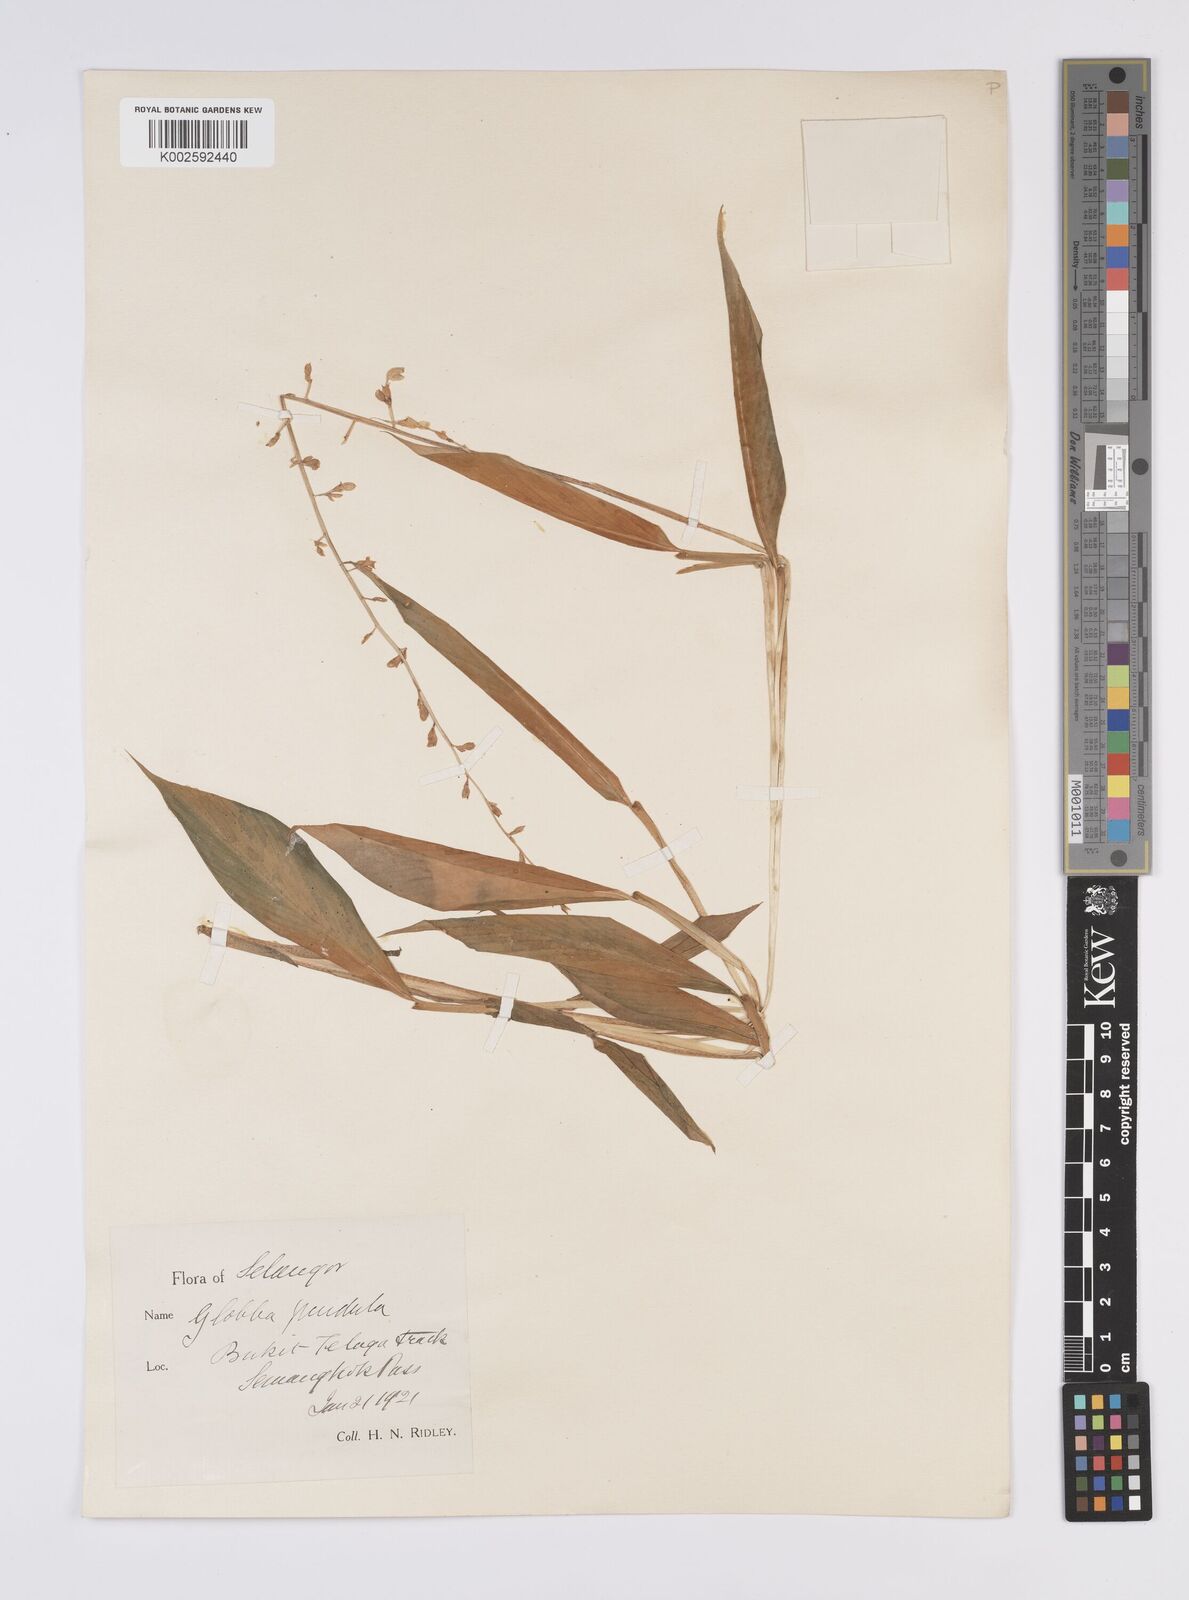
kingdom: Plantae
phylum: Tracheophyta
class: Liliopsida
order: Zingiberales
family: Zingiberaceae
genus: Globba
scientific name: Globba pendula
